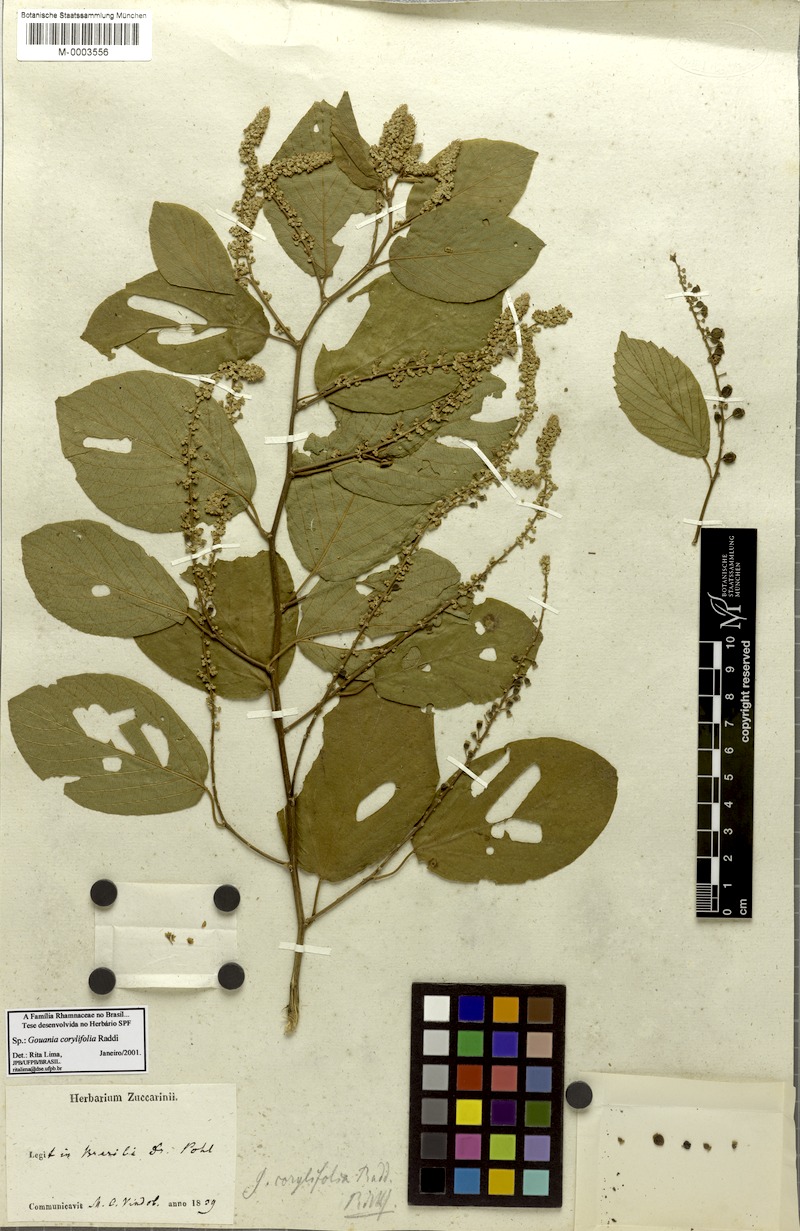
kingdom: Plantae
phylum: Tracheophyta
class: Magnoliopsida
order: Rosales
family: Rhamnaceae
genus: Gouania
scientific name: Gouania corylifolia
